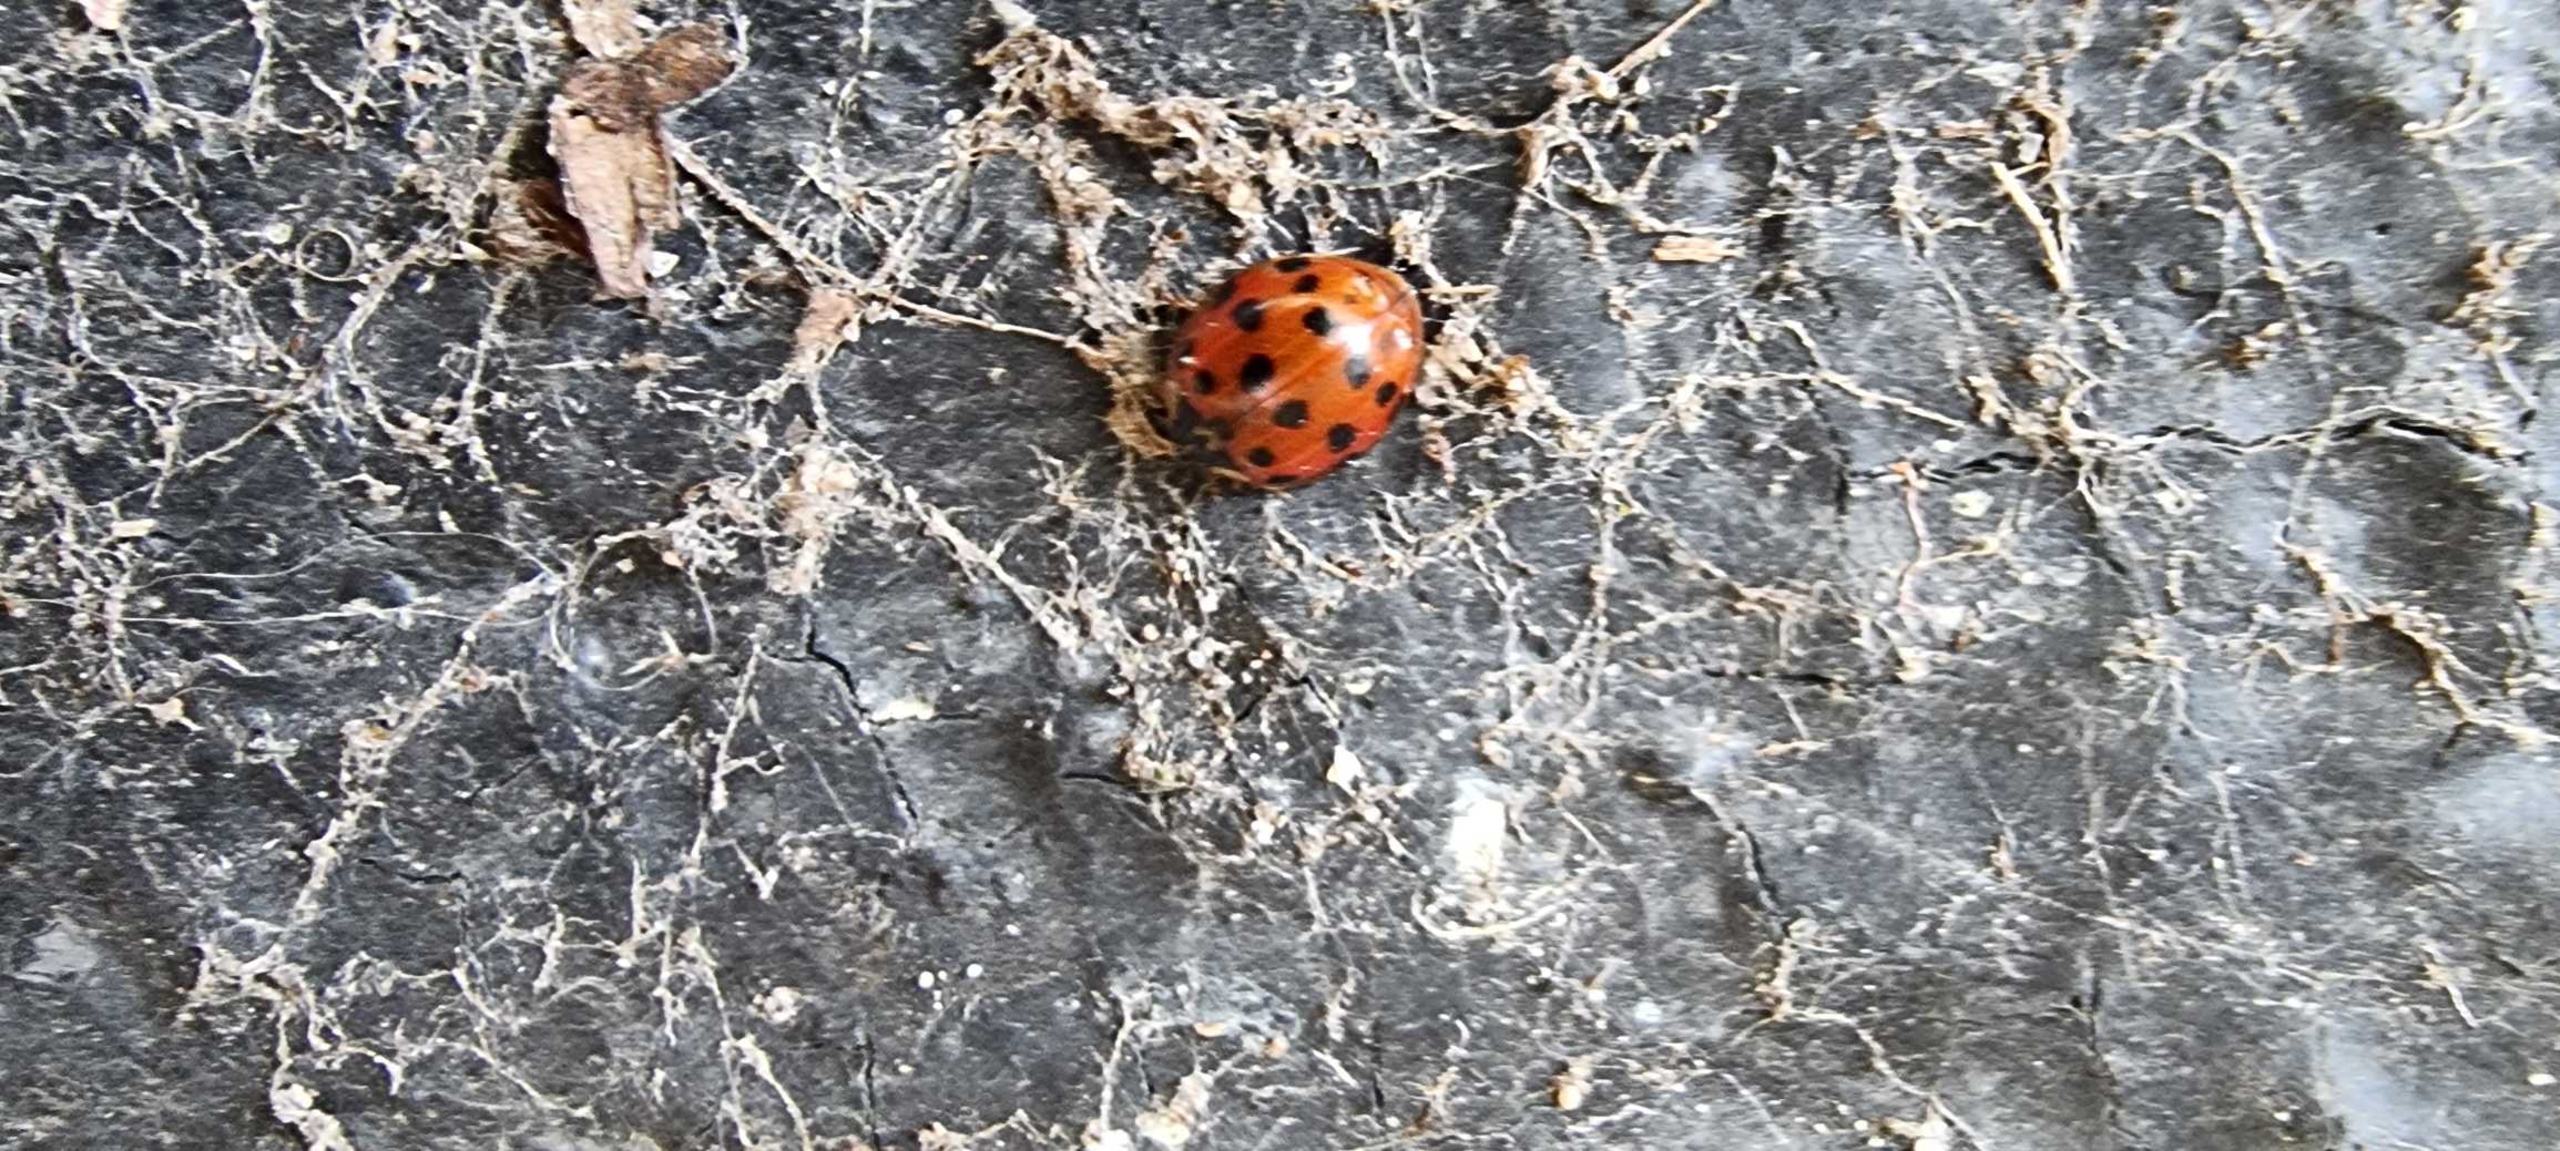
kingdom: Animalia
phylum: Arthropoda
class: Insecta
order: Coleoptera
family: Coccinellidae
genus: Harmonia
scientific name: Harmonia axyridis
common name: Harlekinmariehøne
